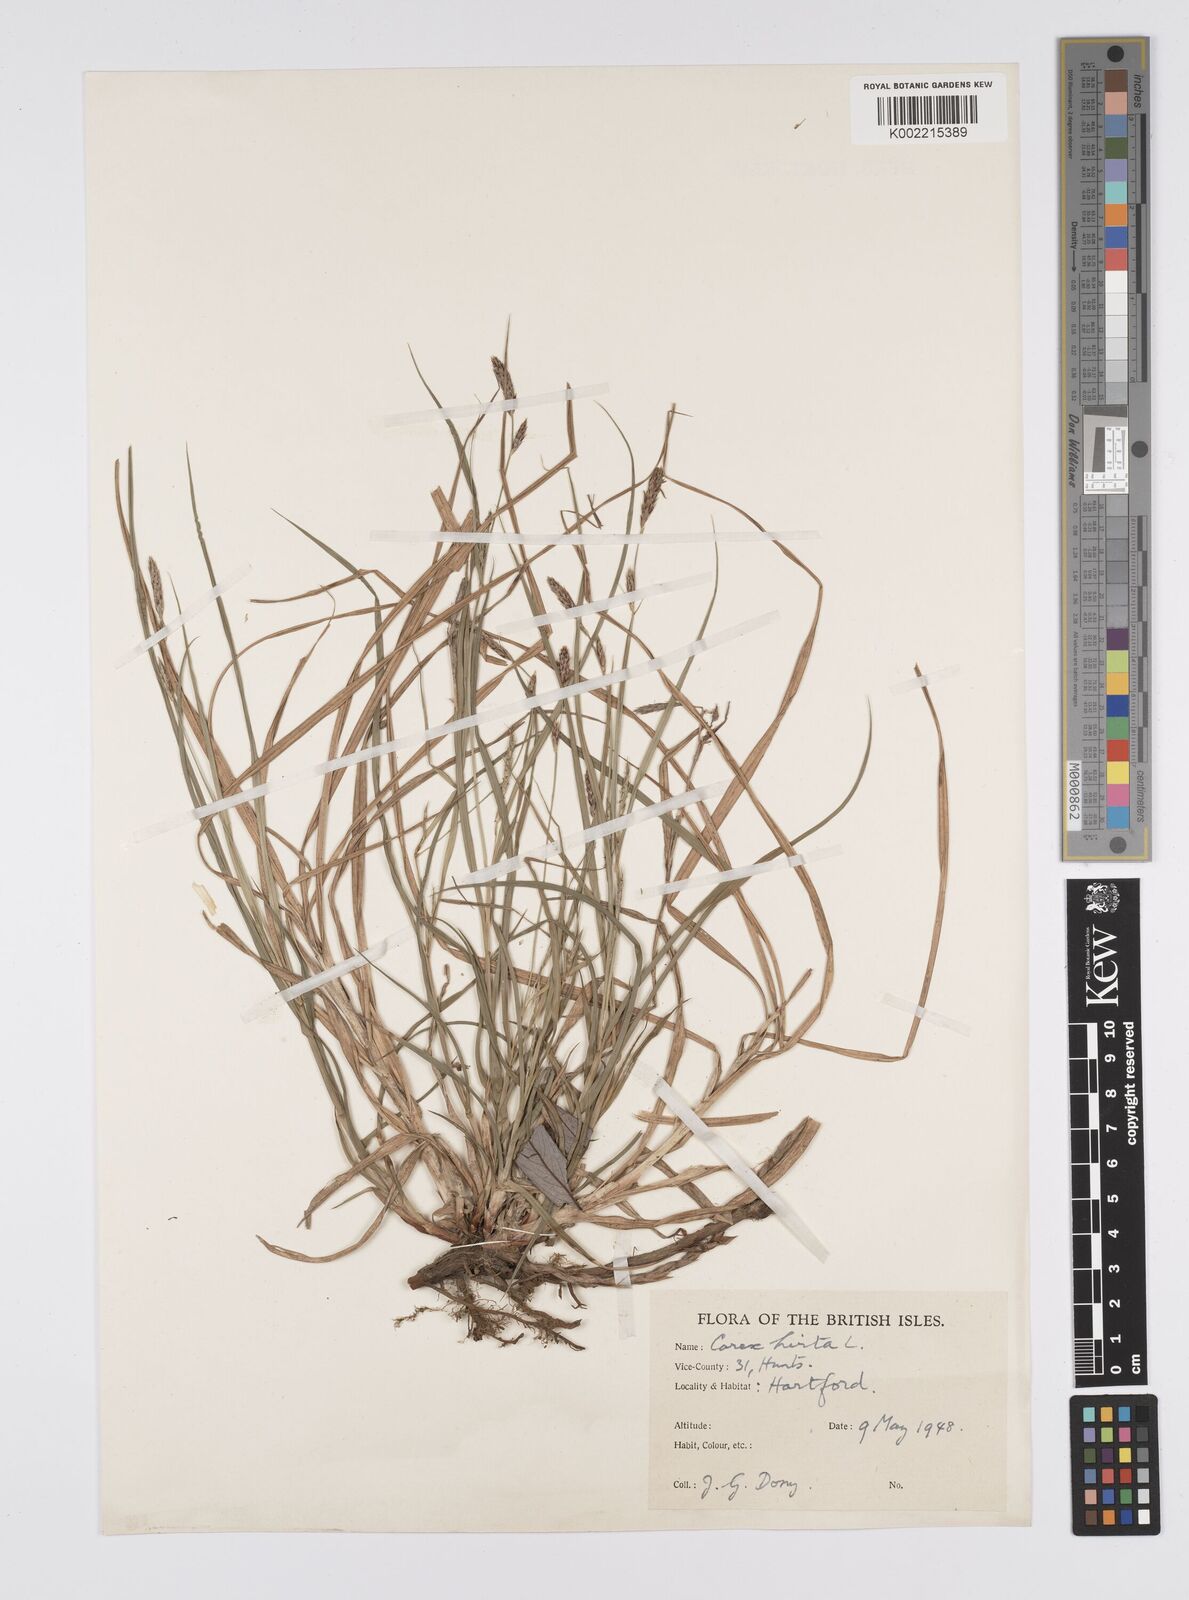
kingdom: Plantae
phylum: Tracheophyta
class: Liliopsida
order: Poales
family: Cyperaceae
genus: Carex
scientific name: Carex hirta
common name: Hairy sedge
